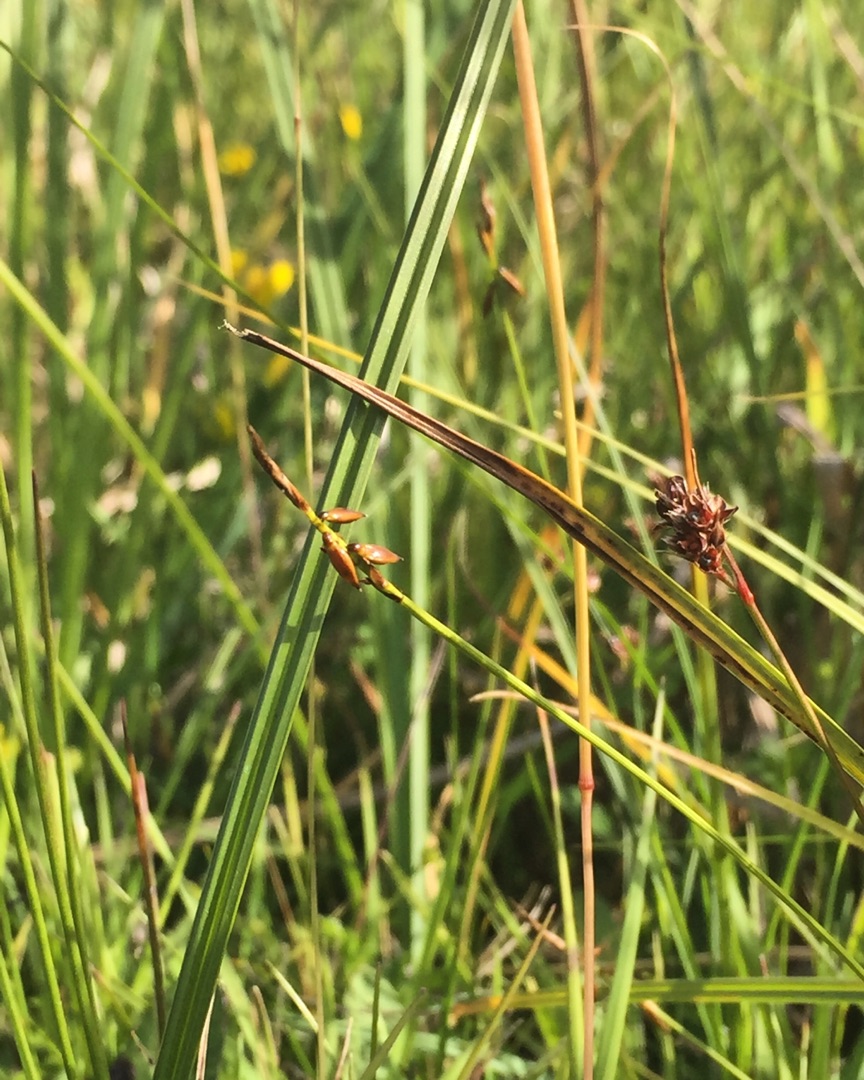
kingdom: Plantae
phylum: Tracheophyta
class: Liliopsida
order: Poales
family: Cyperaceae
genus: Carex
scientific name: Carex pulicaris
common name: Loppe-star
